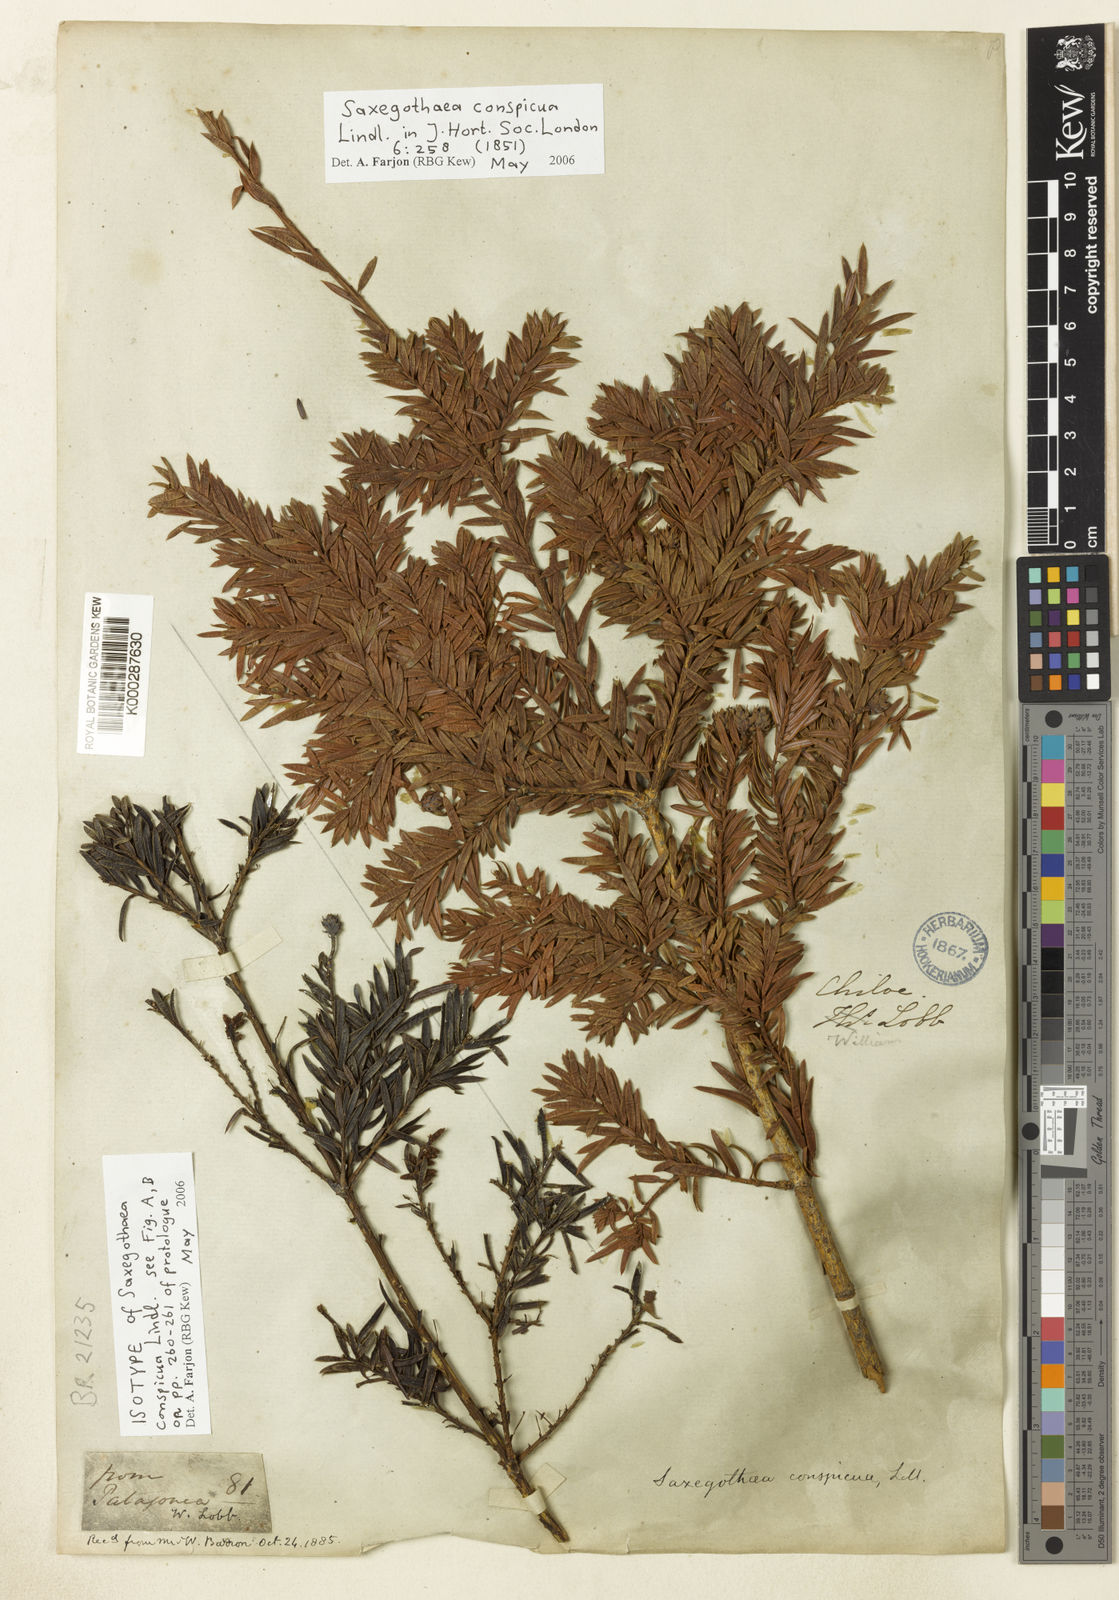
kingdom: Plantae
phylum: Tracheophyta
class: Pinopsida
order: Pinales
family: Podocarpaceae
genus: Saxegothaea
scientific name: Saxegothaea conspicua
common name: Prince albert's yew
